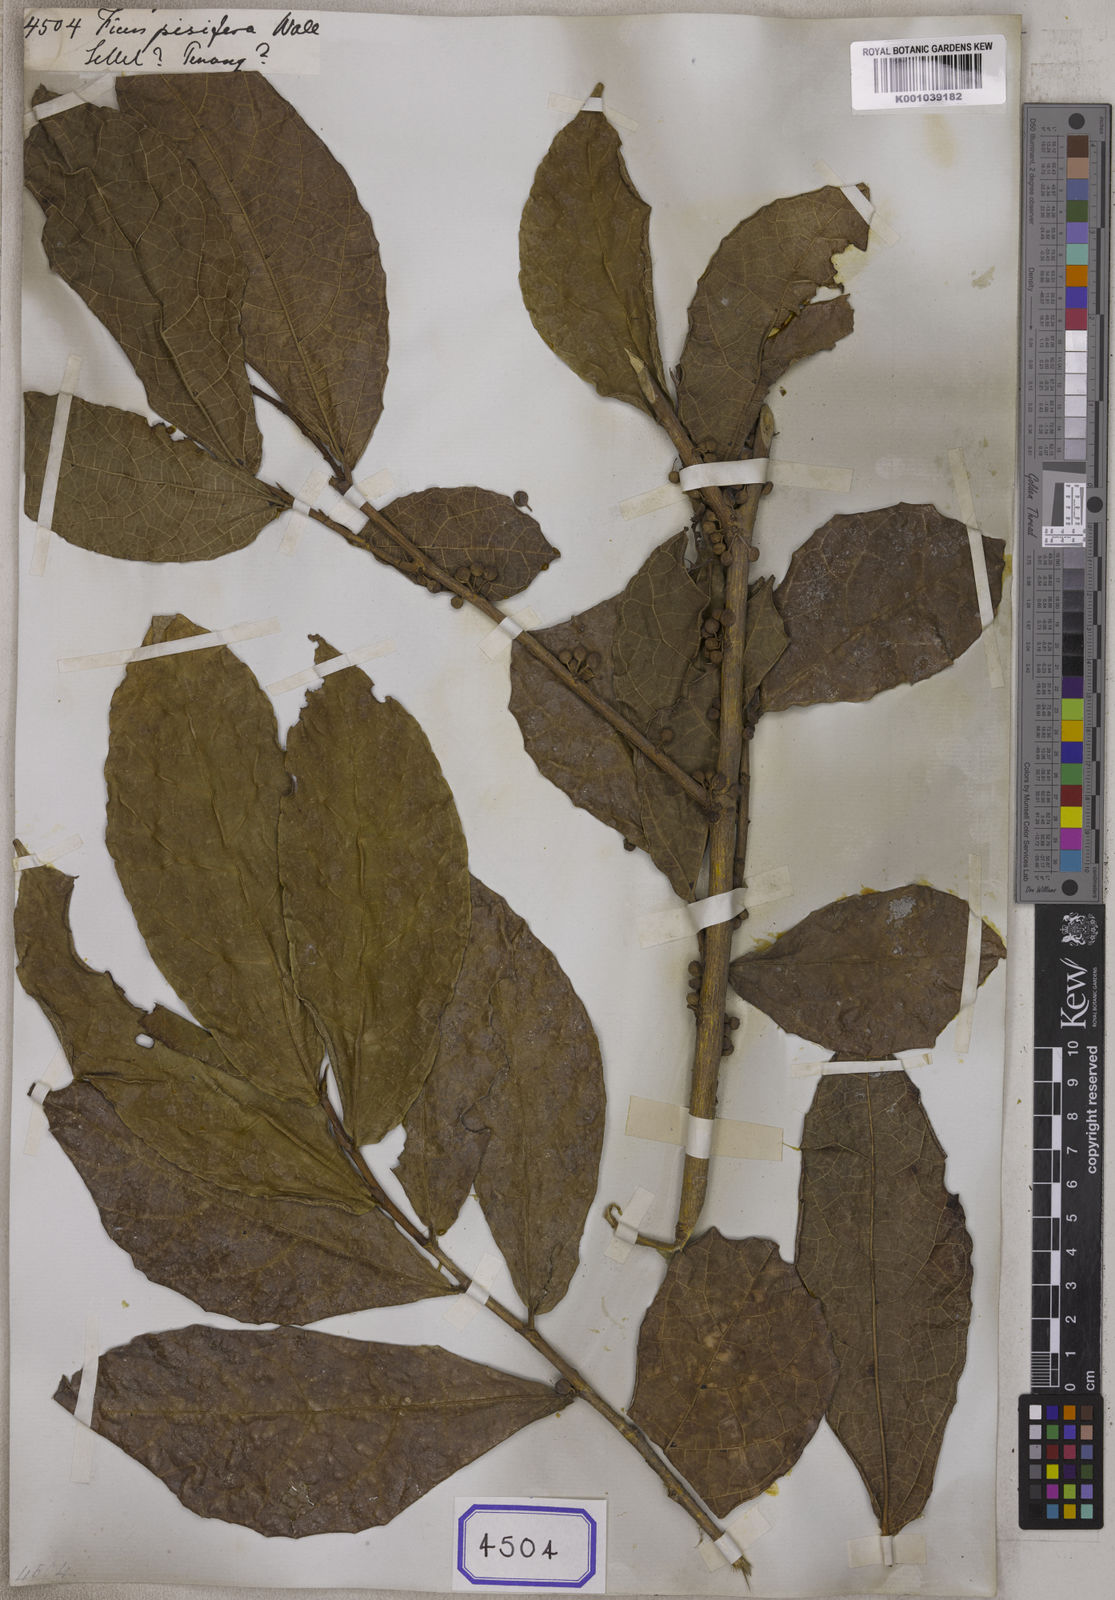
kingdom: Plantae
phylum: Tracheophyta
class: Magnoliopsida
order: Rosales
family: Moraceae
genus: Ficus
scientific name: Ficus
